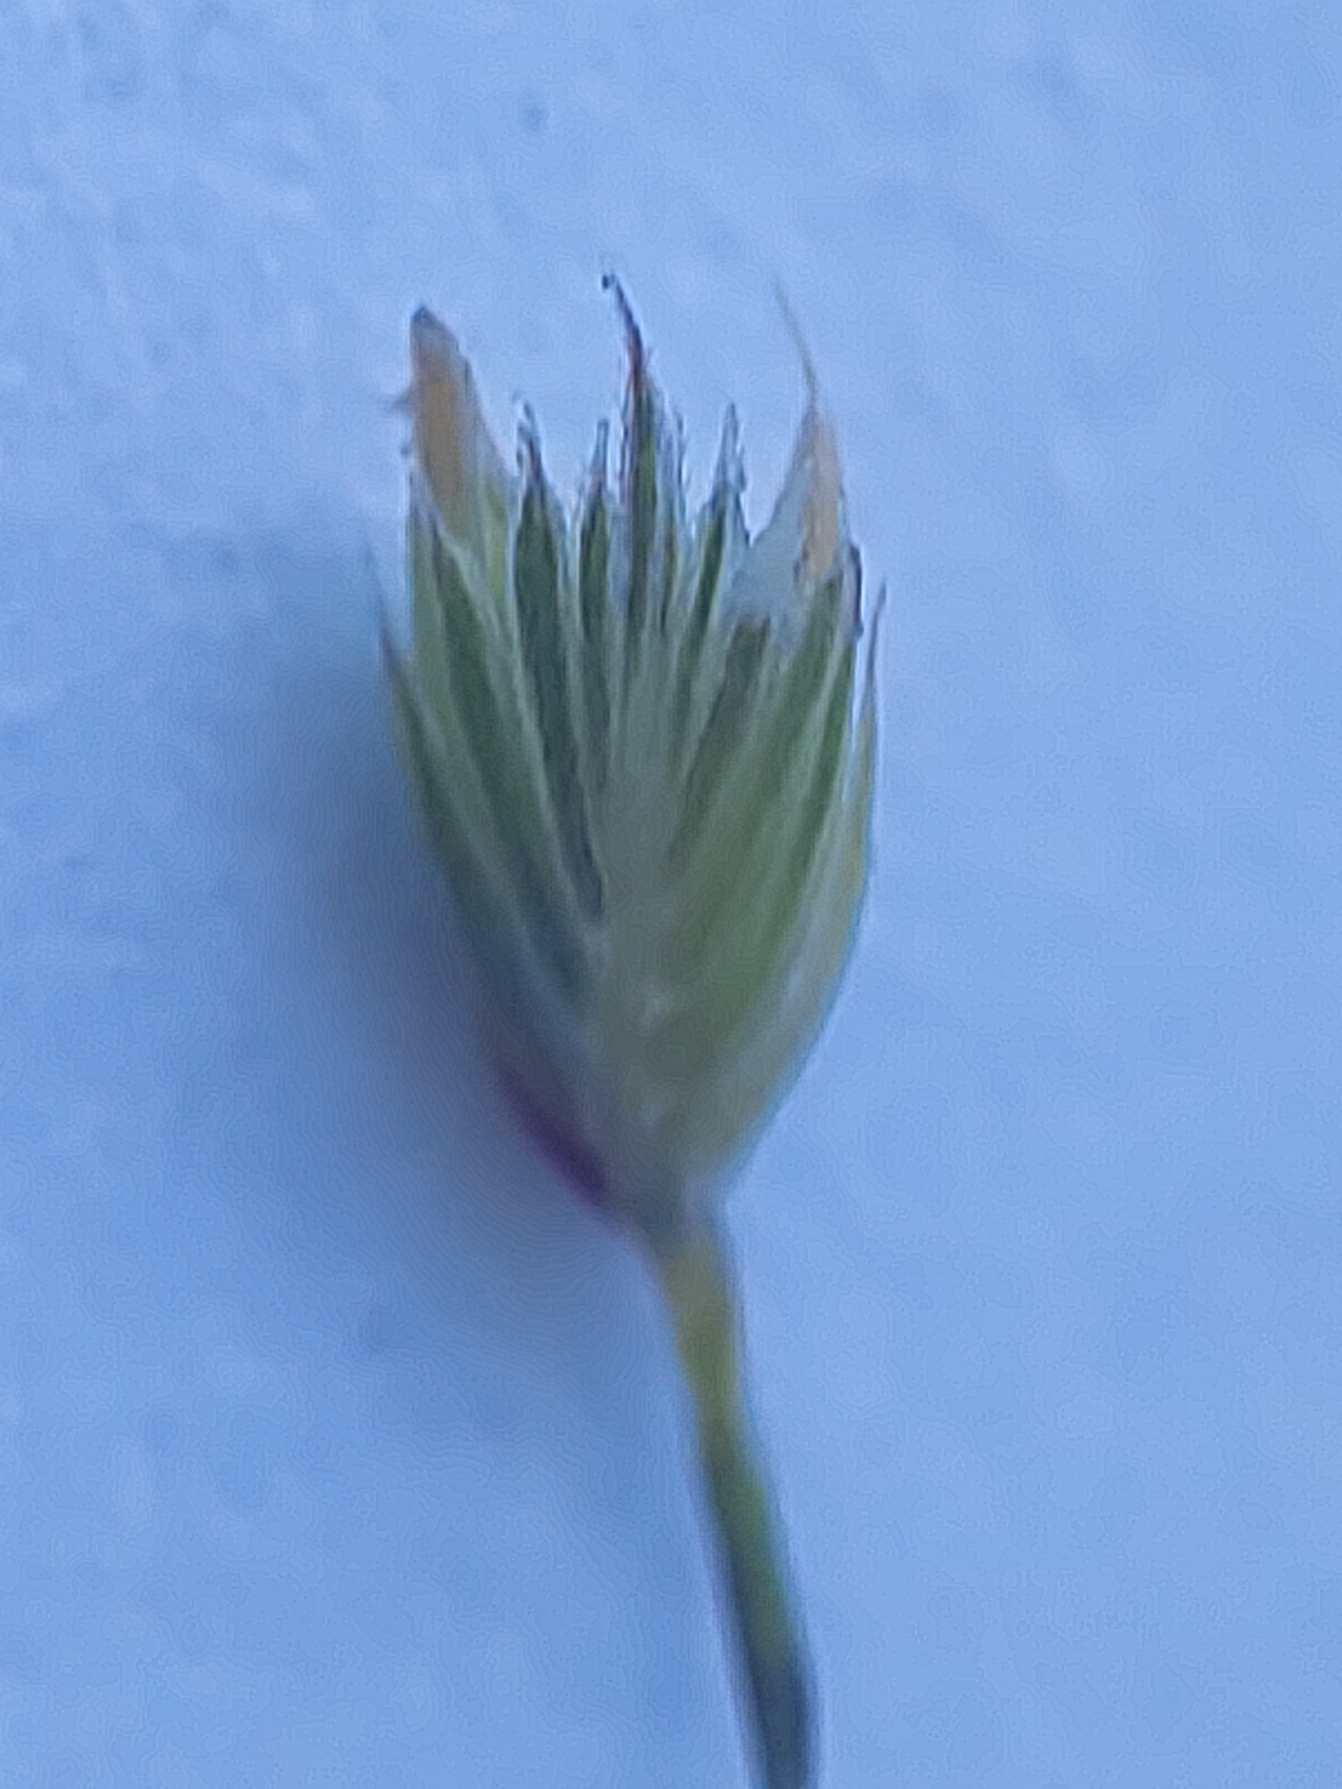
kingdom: Plantae
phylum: Tracheophyta
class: Liliopsida
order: Poales
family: Poaceae
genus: Cynosurus
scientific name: Cynosurus cristatus
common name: Kamgræs
